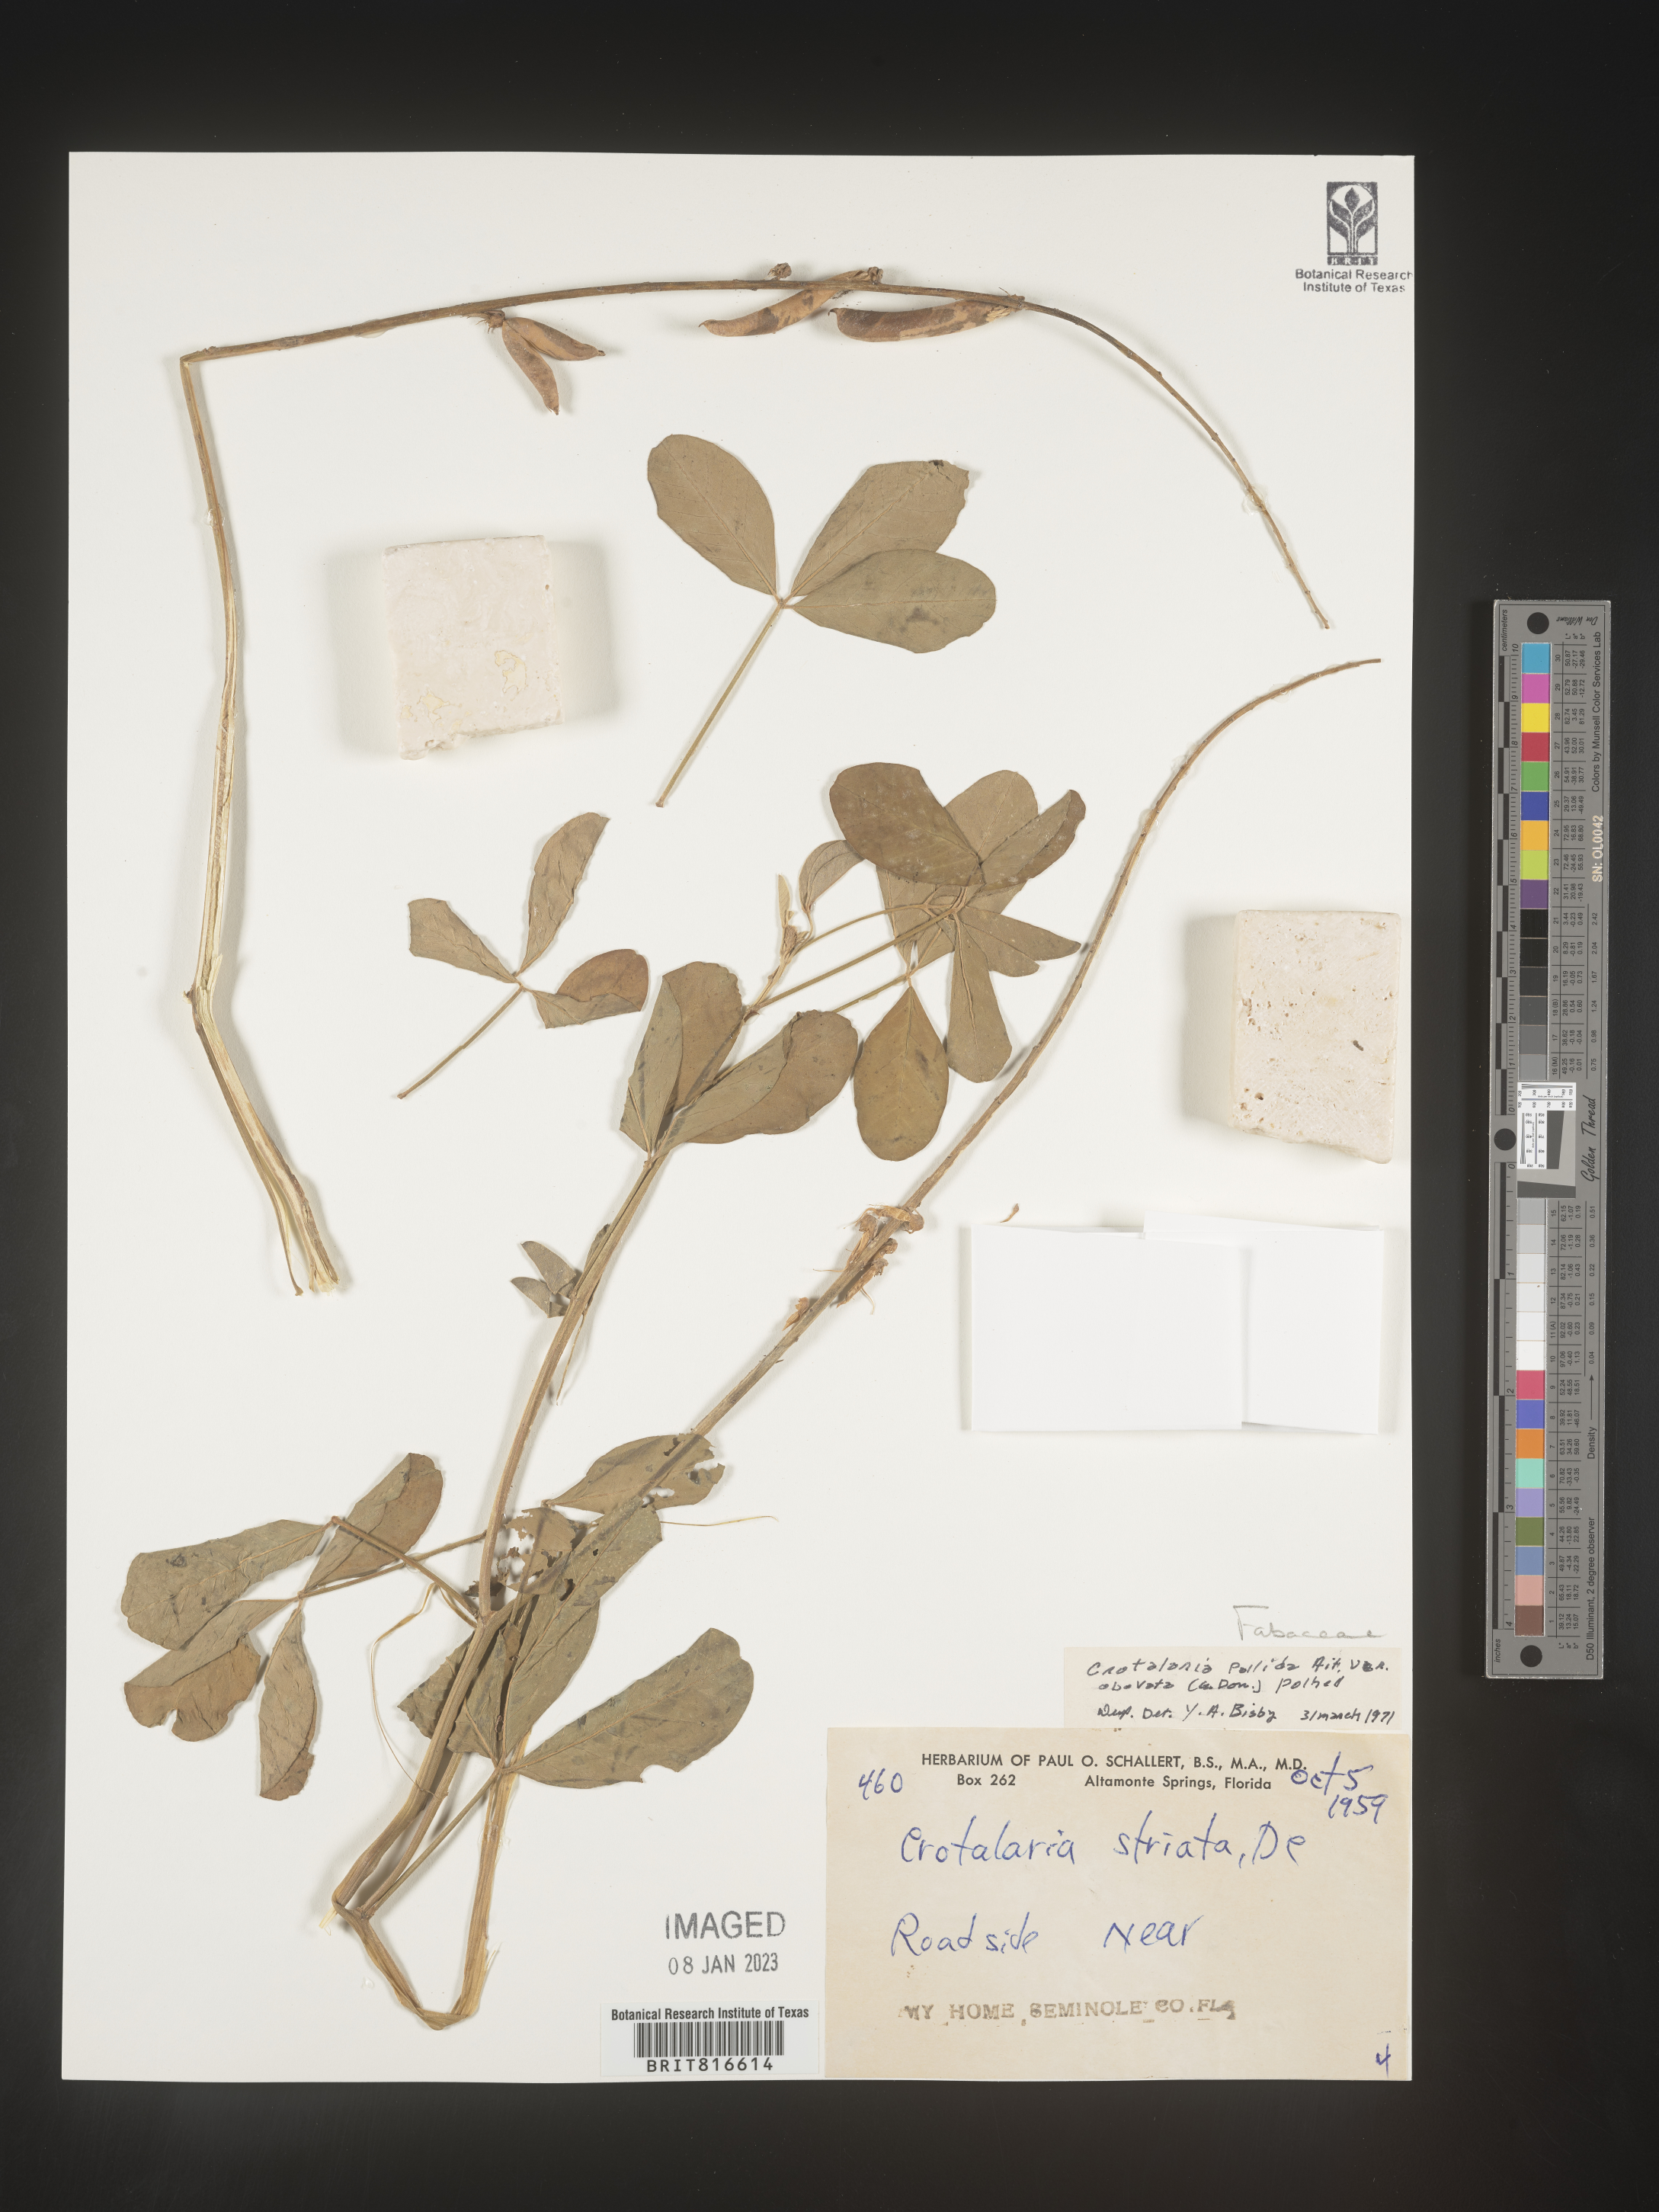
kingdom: Plantae
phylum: Tracheophyta
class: Magnoliopsida
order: Fabales
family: Fabaceae
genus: Crotalaria
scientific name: Crotalaria linifolia
